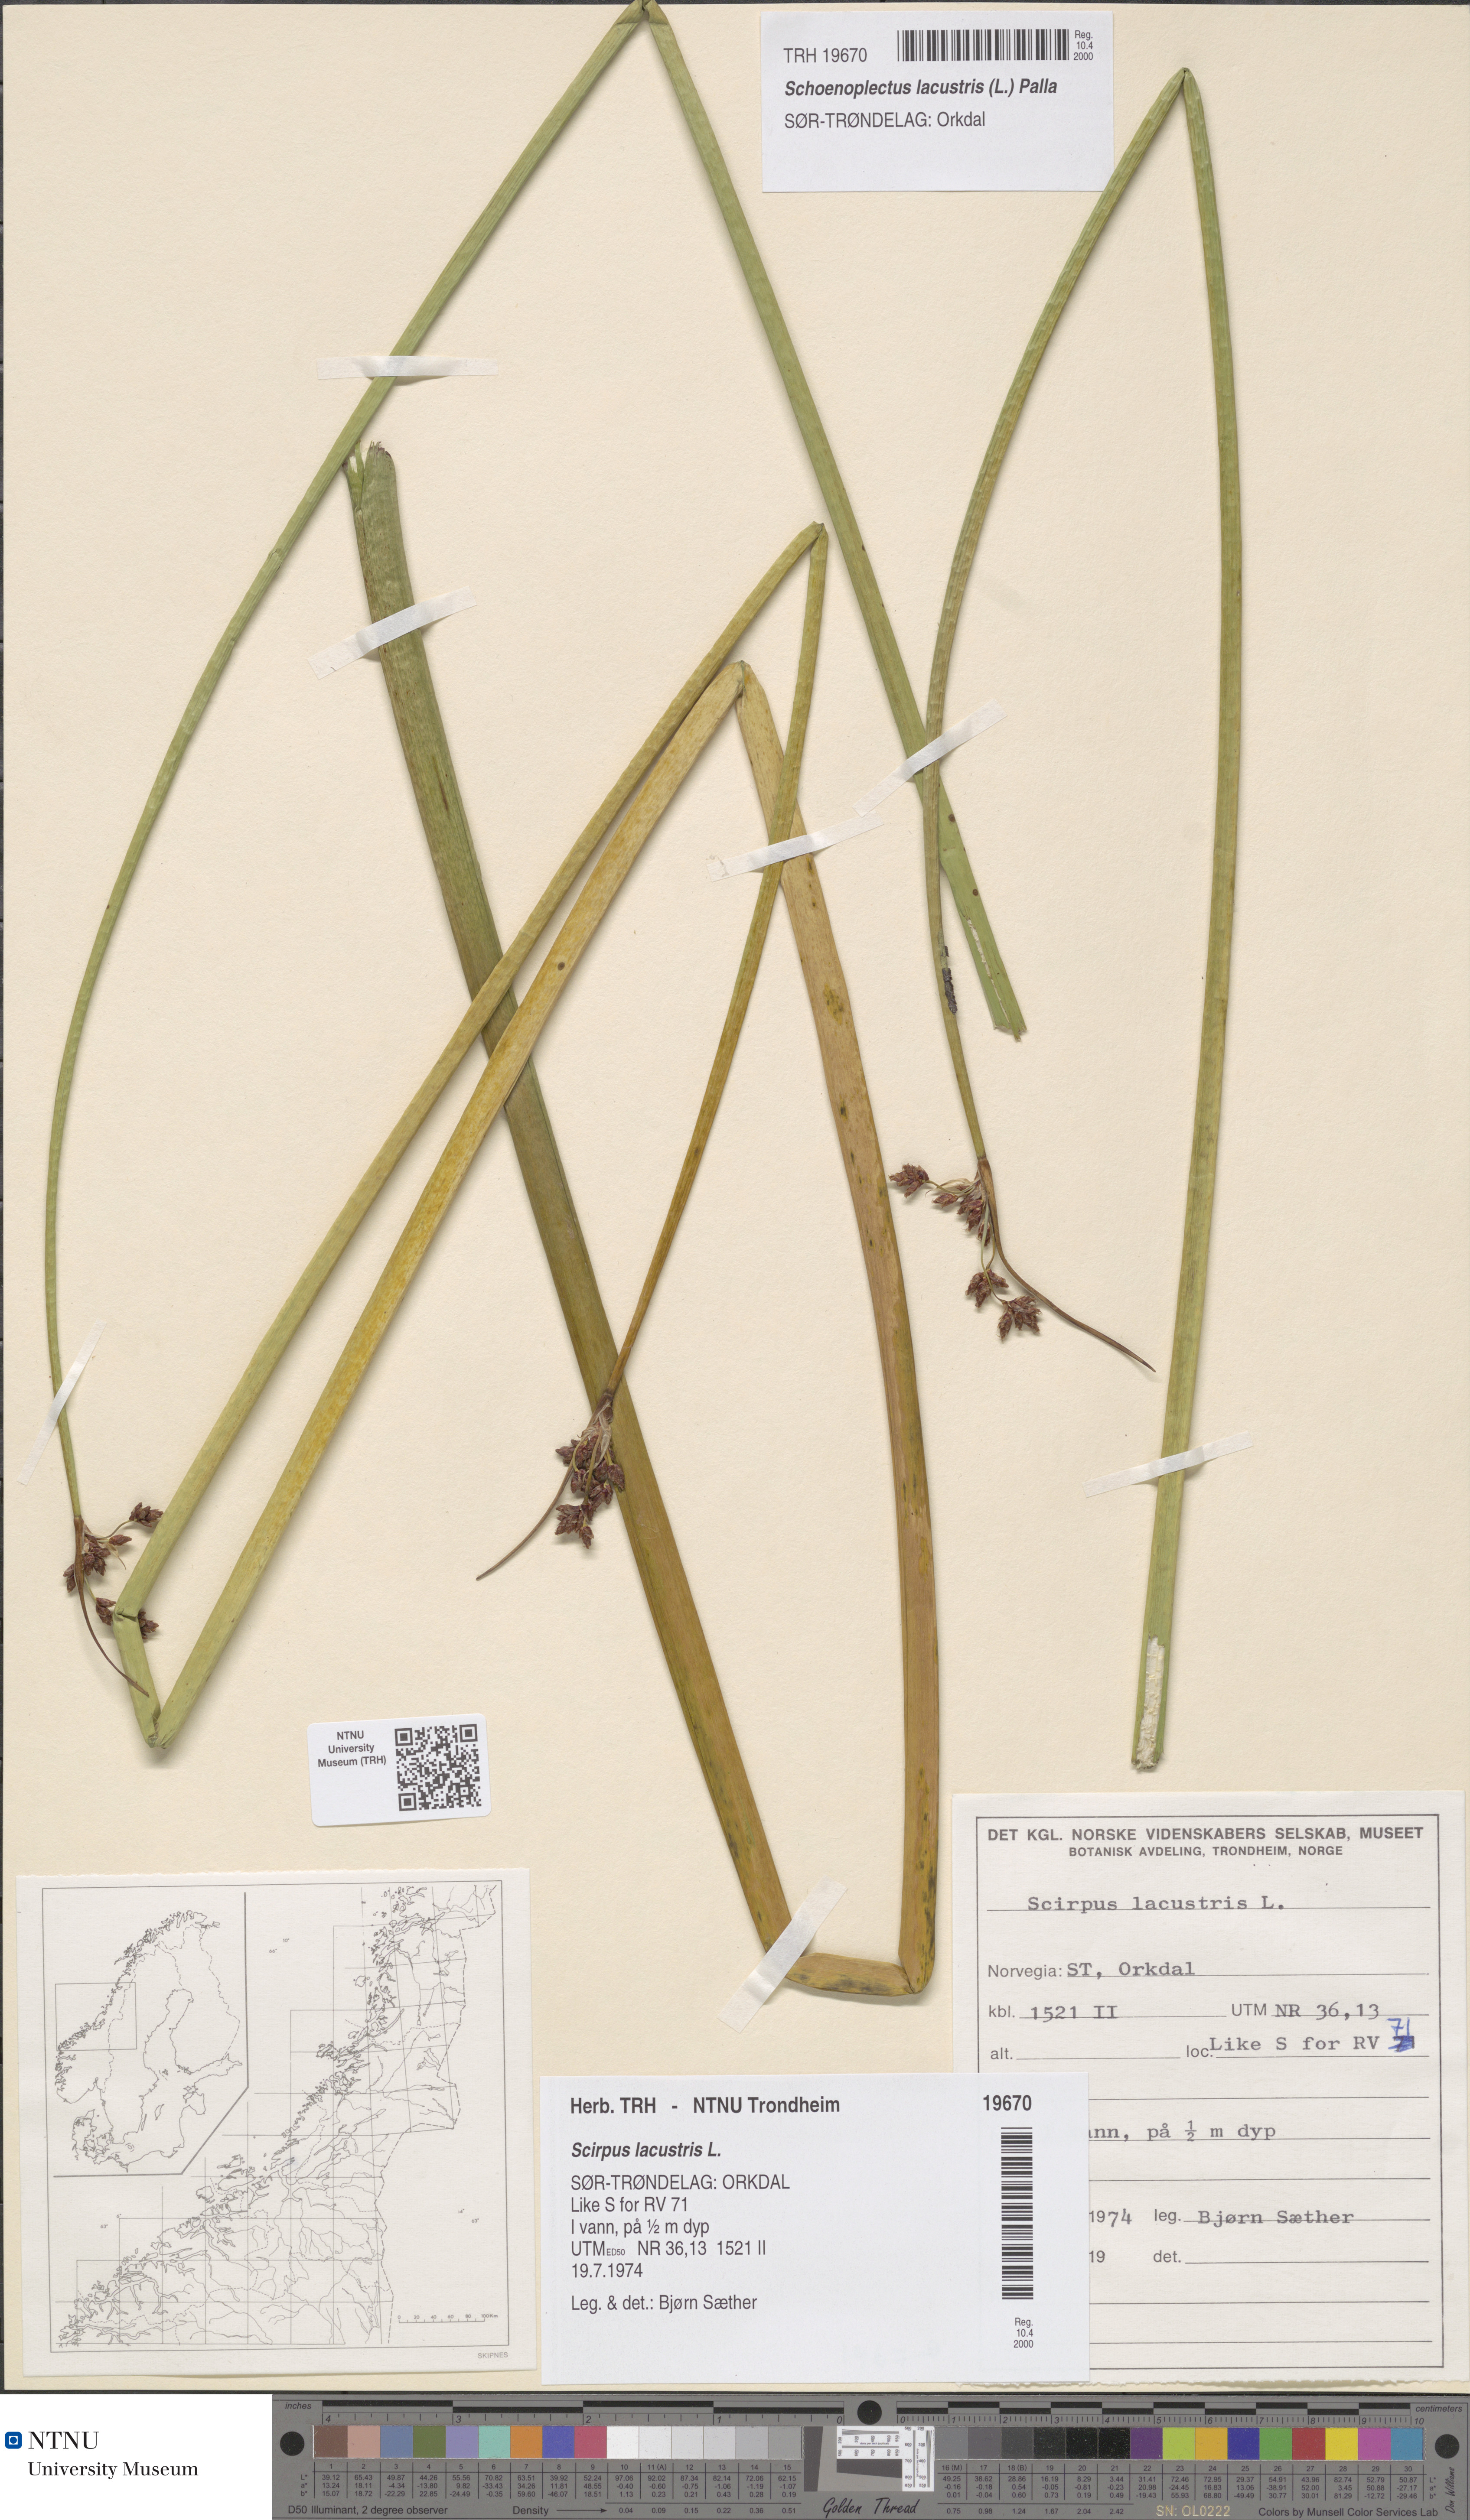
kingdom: Plantae
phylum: Tracheophyta
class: Liliopsida
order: Poales
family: Cyperaceae
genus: Schoenoplectus
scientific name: Schoenoplectus lacustris
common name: Common club-rush
